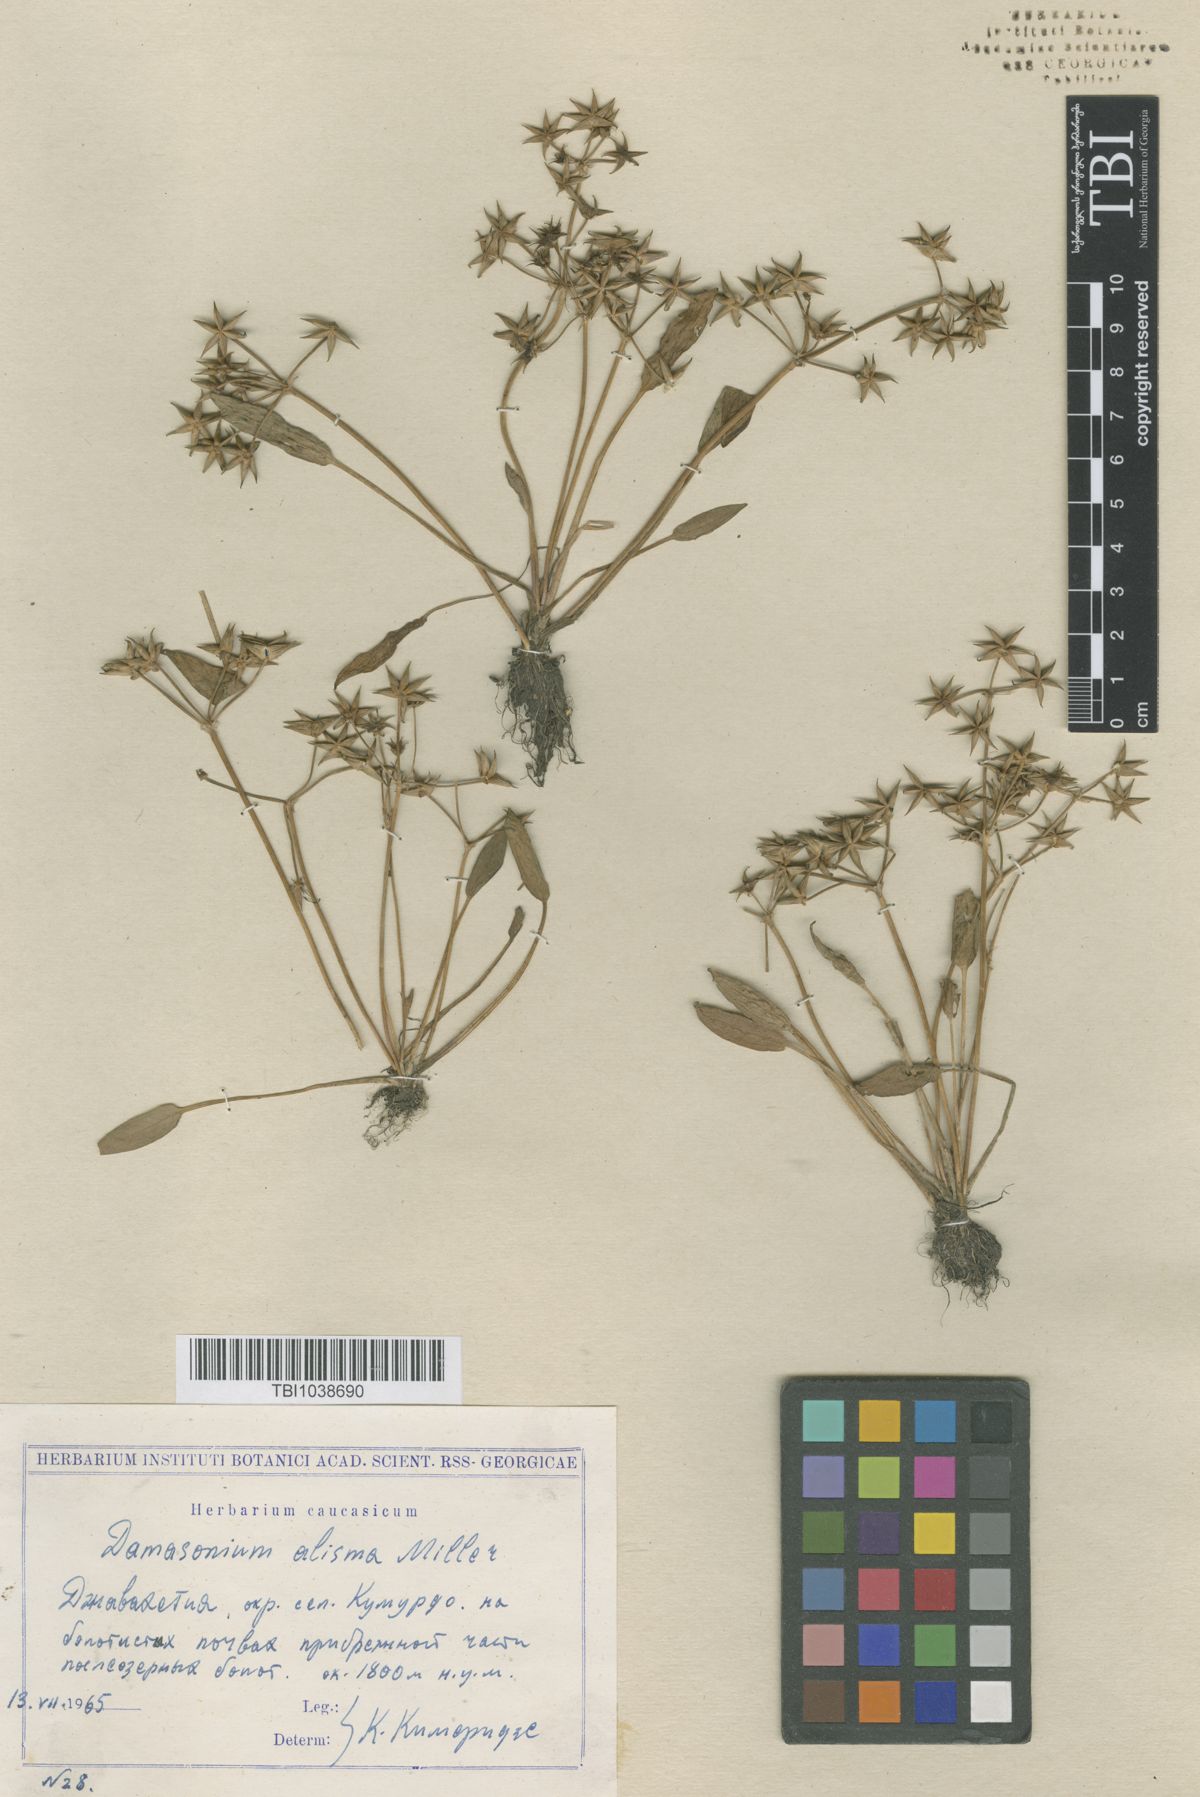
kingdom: Plantae
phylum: Tracheophyta
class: Liliopsida
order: Alismatales
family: Alismataceae
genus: Damasonium
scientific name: Damasonium alisma
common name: Starfruit
